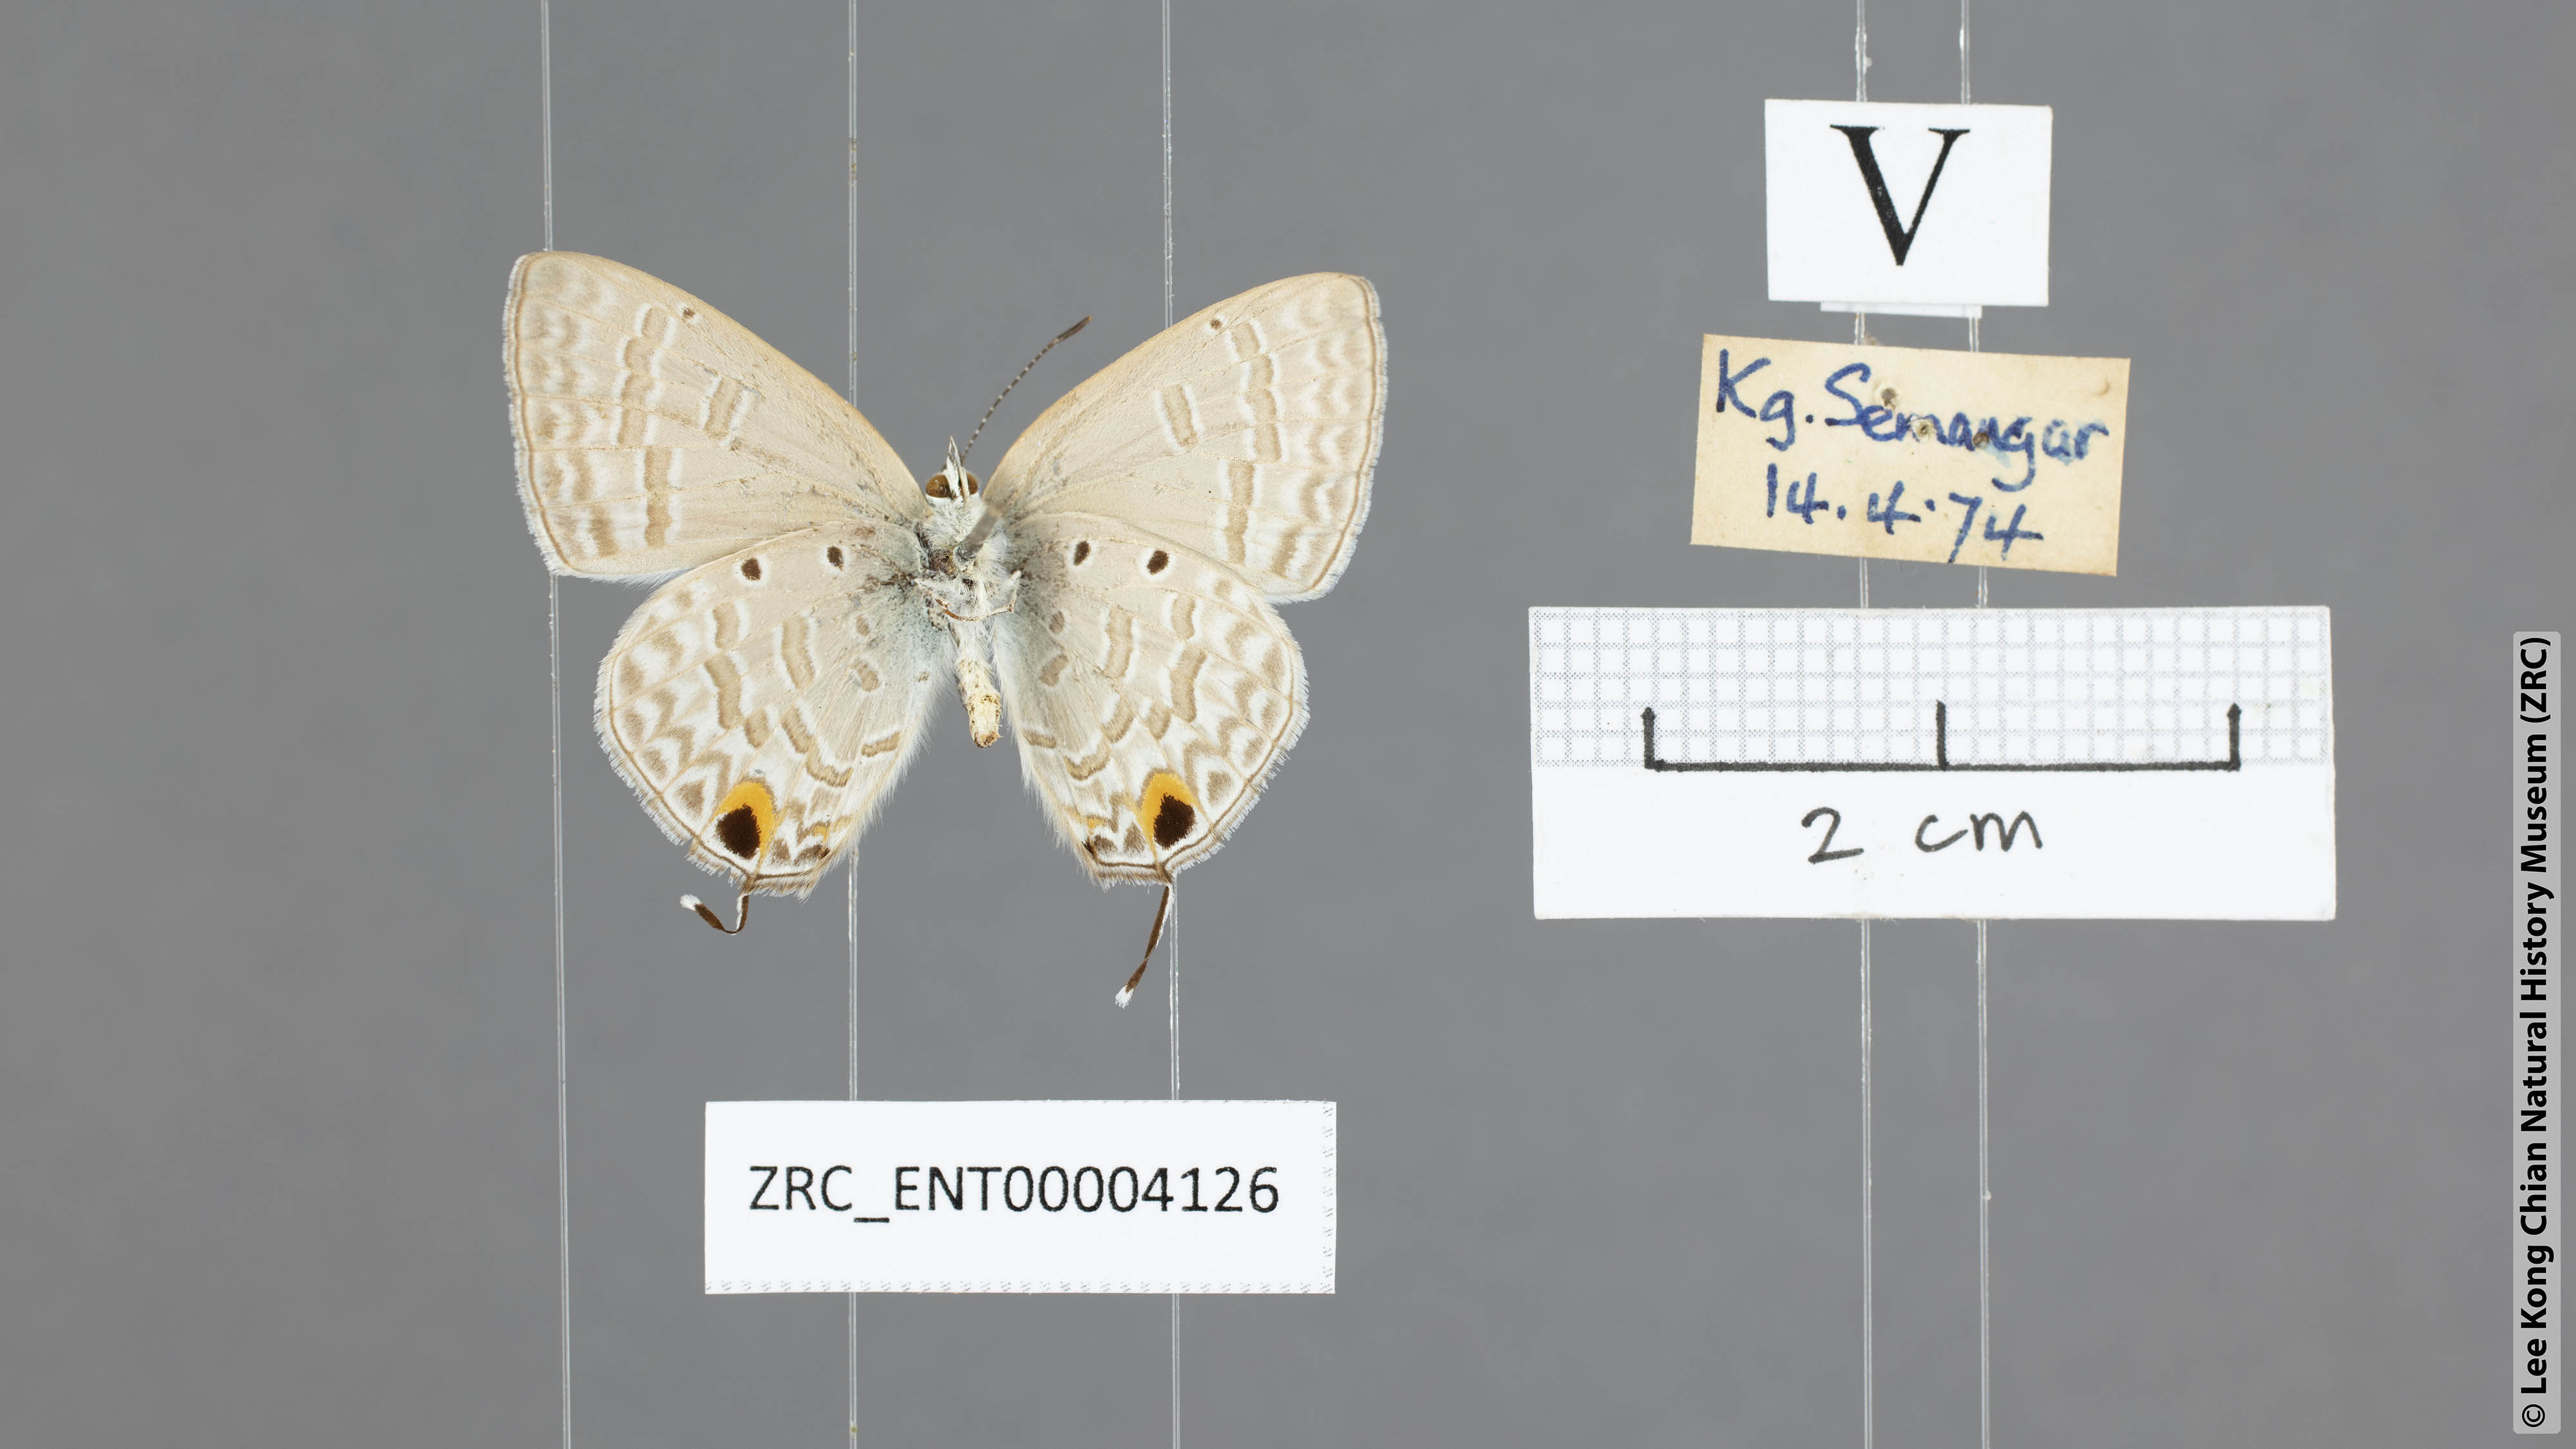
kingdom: Animalia
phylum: Arthropoda
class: Insecta
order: Lepidoptera
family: Lycaenidae
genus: Catochrysops
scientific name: Catochrysops panormus
